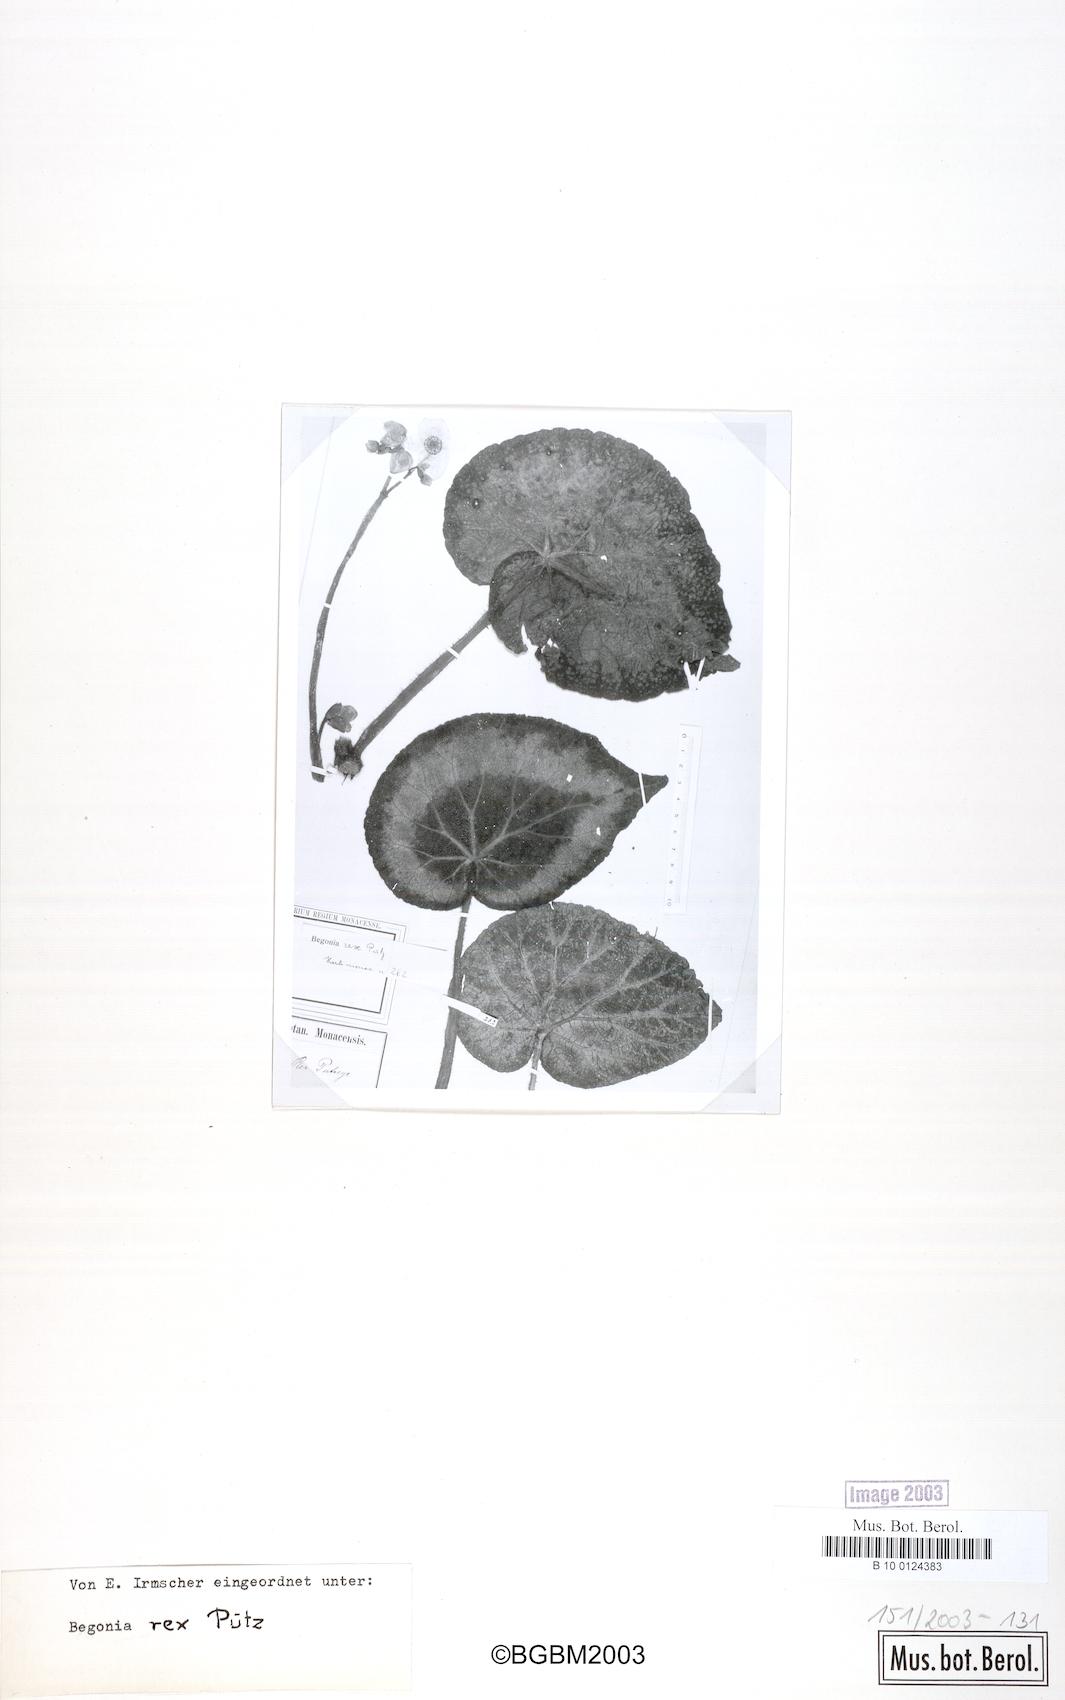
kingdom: Plantae
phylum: Tracheophyta
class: Magnoliopsida
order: Cucurbitales
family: Begoniaceae
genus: Begonia
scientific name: Begonia rex
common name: Painted-leaf begonia
